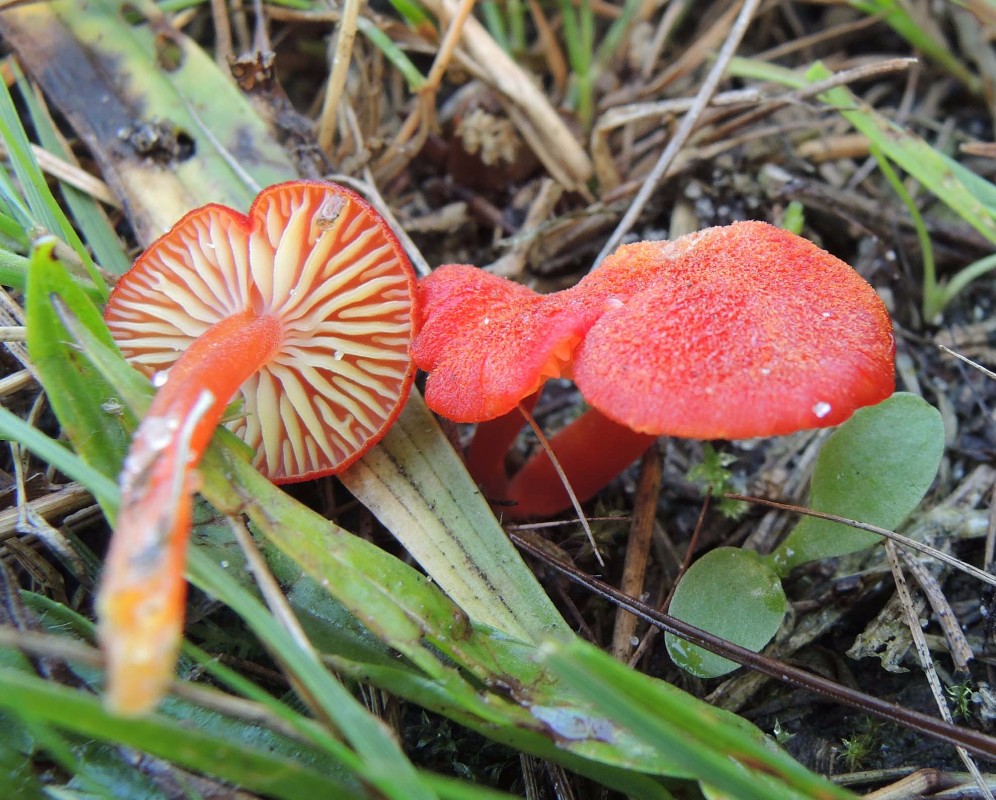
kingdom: Fungi
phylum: Basidiomycota
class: Agaricomycetes
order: Agaricales
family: Hygrophoraceae
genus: Hygrocybe
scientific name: Hygrocybe helobia
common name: hvidløgs-vokshat
